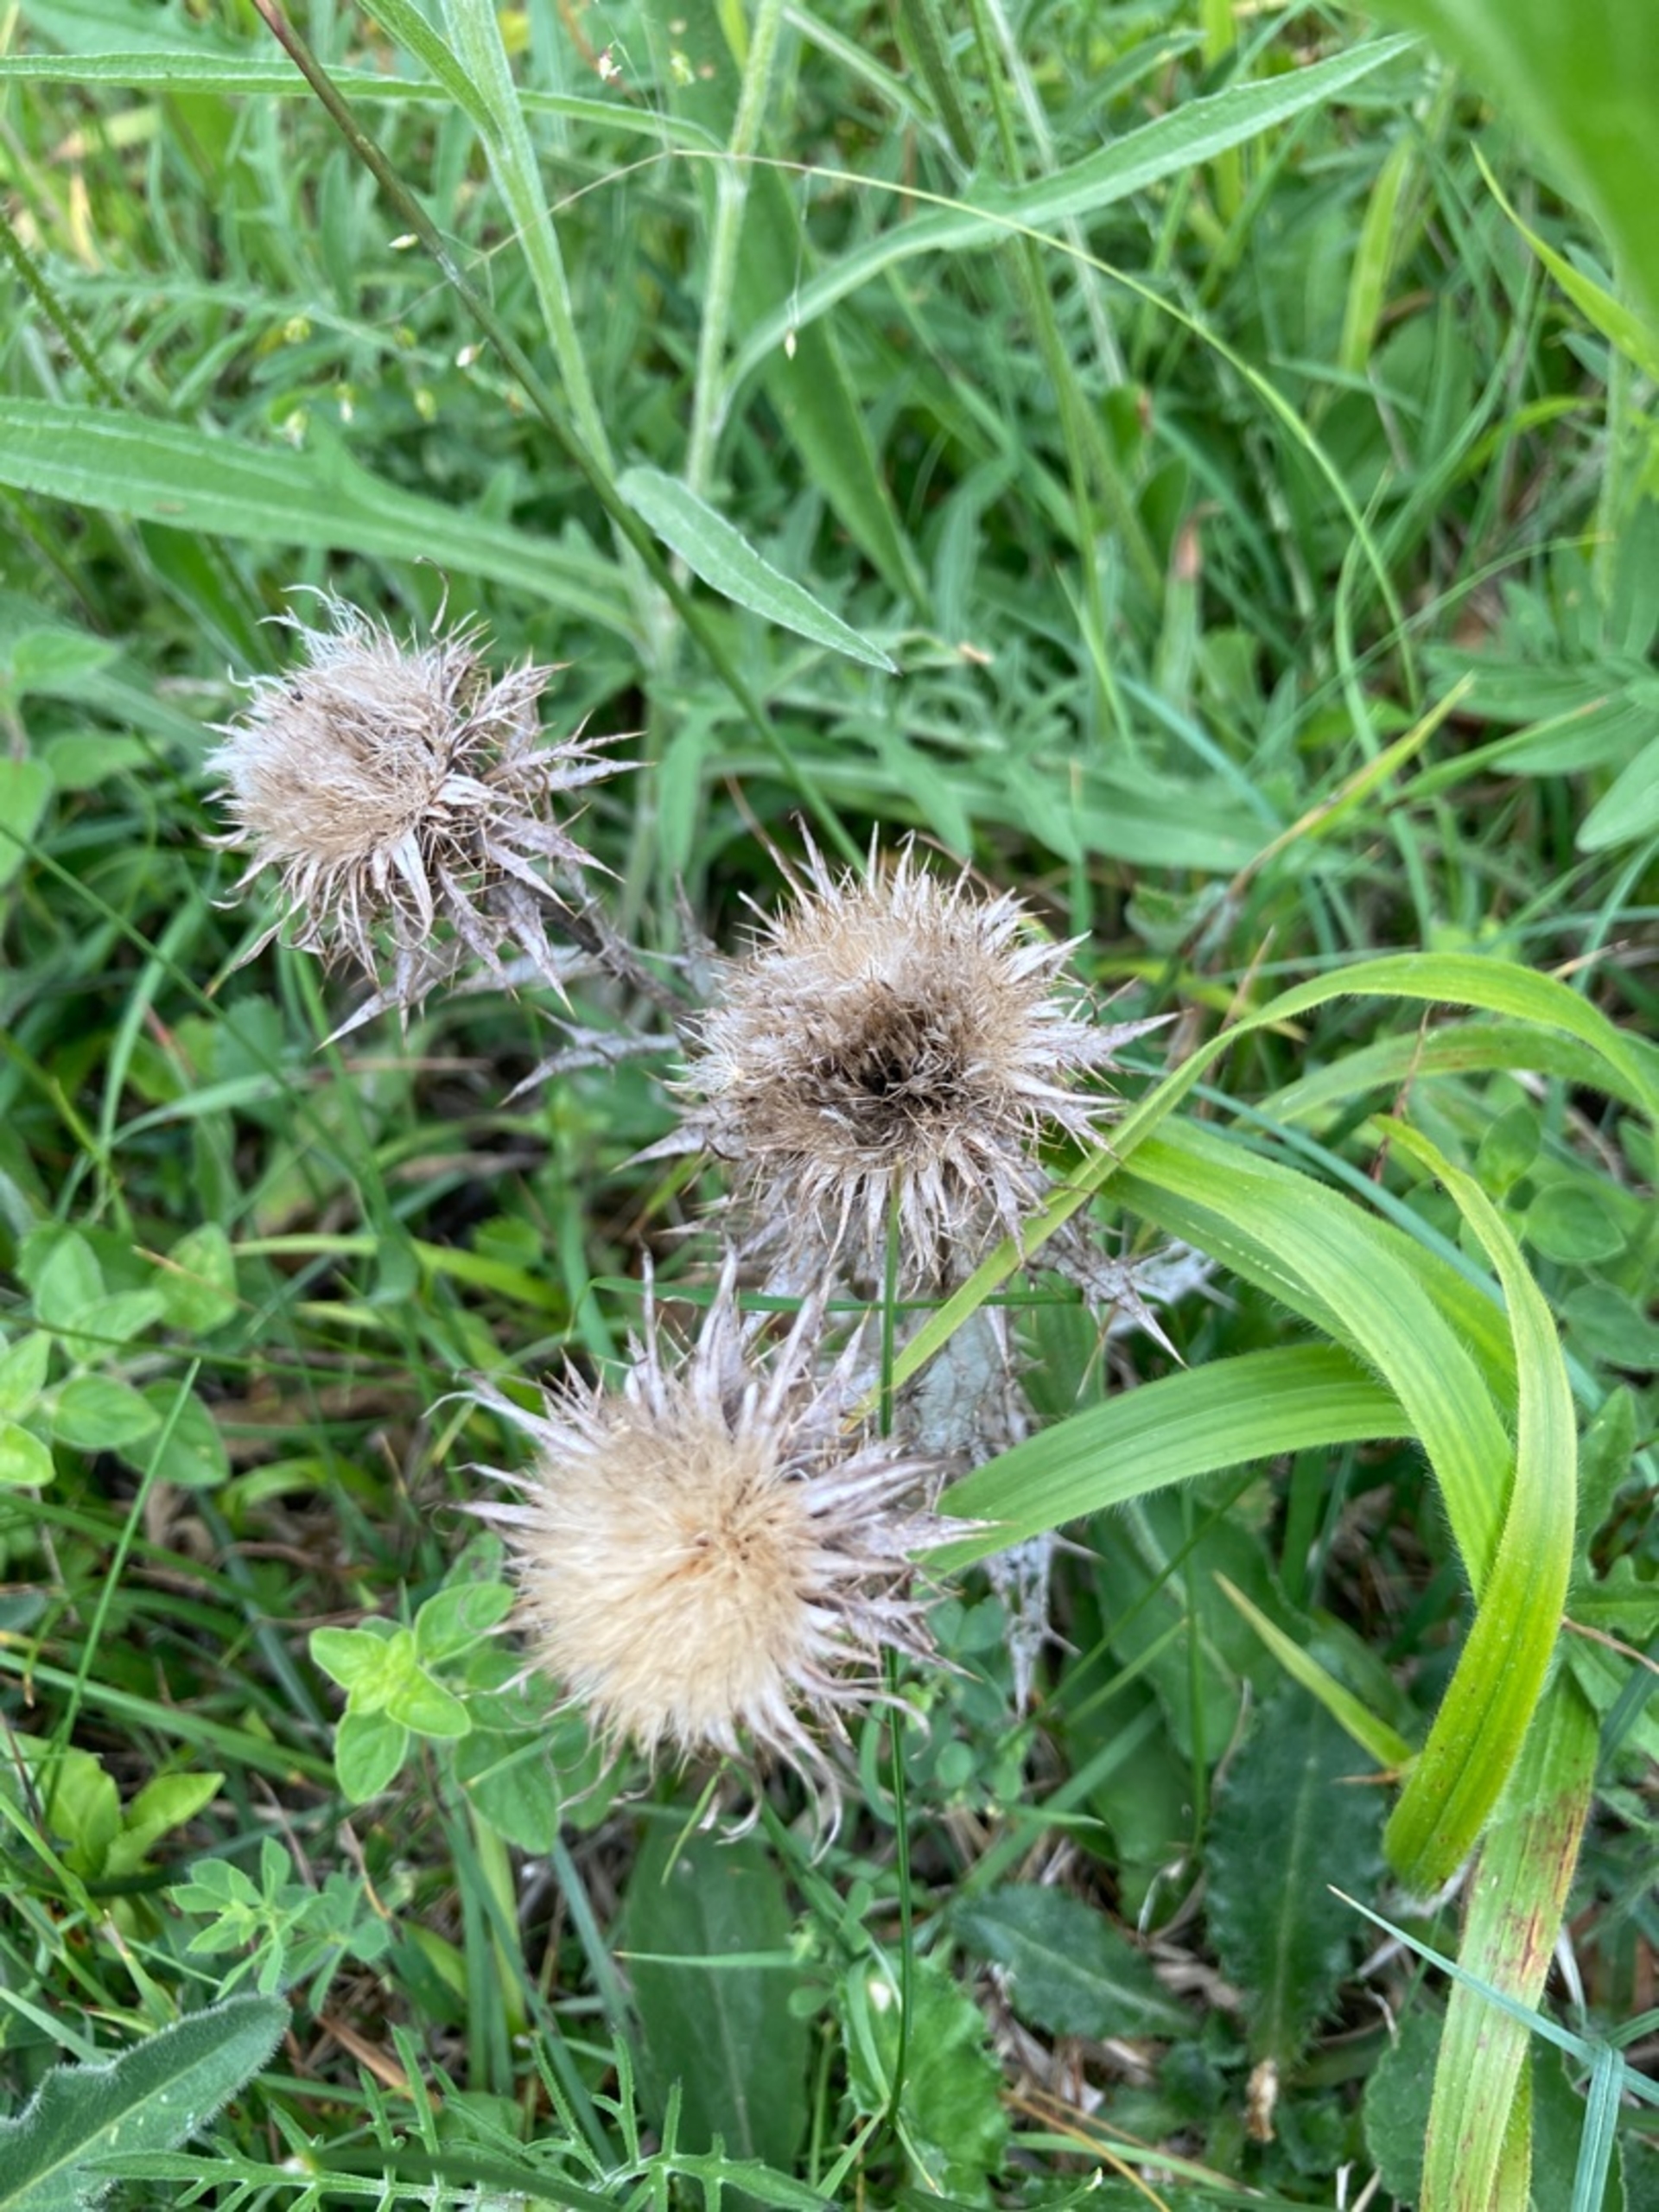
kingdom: Plantae
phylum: Tracheophyta
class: Magnoliopsida
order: Asterales
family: Asteraceae
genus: Carlina
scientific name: Carlina vulgaris
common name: Bakketidsel
